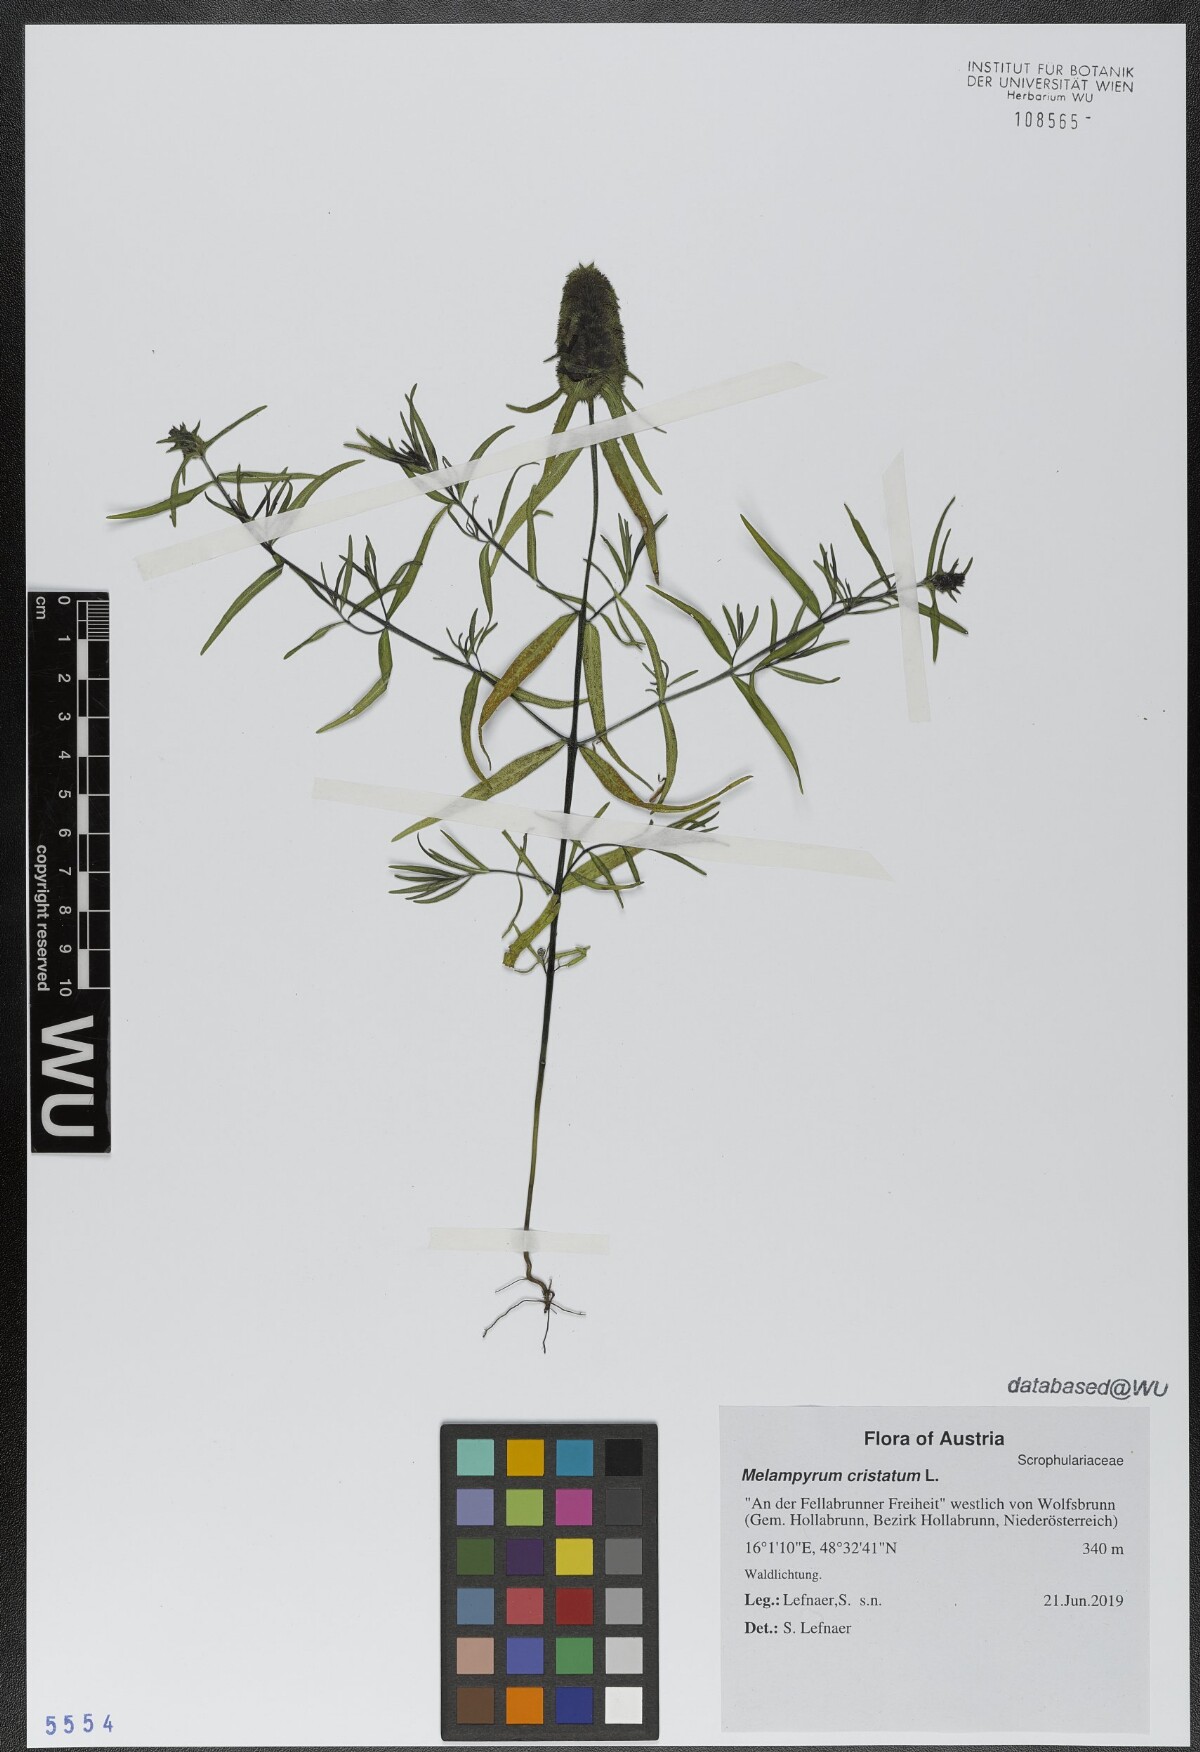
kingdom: Plantae
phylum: Tracheophyta
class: Magnoliopsida
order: Lamiales
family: Orobanchaceae
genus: Melampyrum
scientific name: Melampyrum cristatum
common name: Crested cow-wheat
